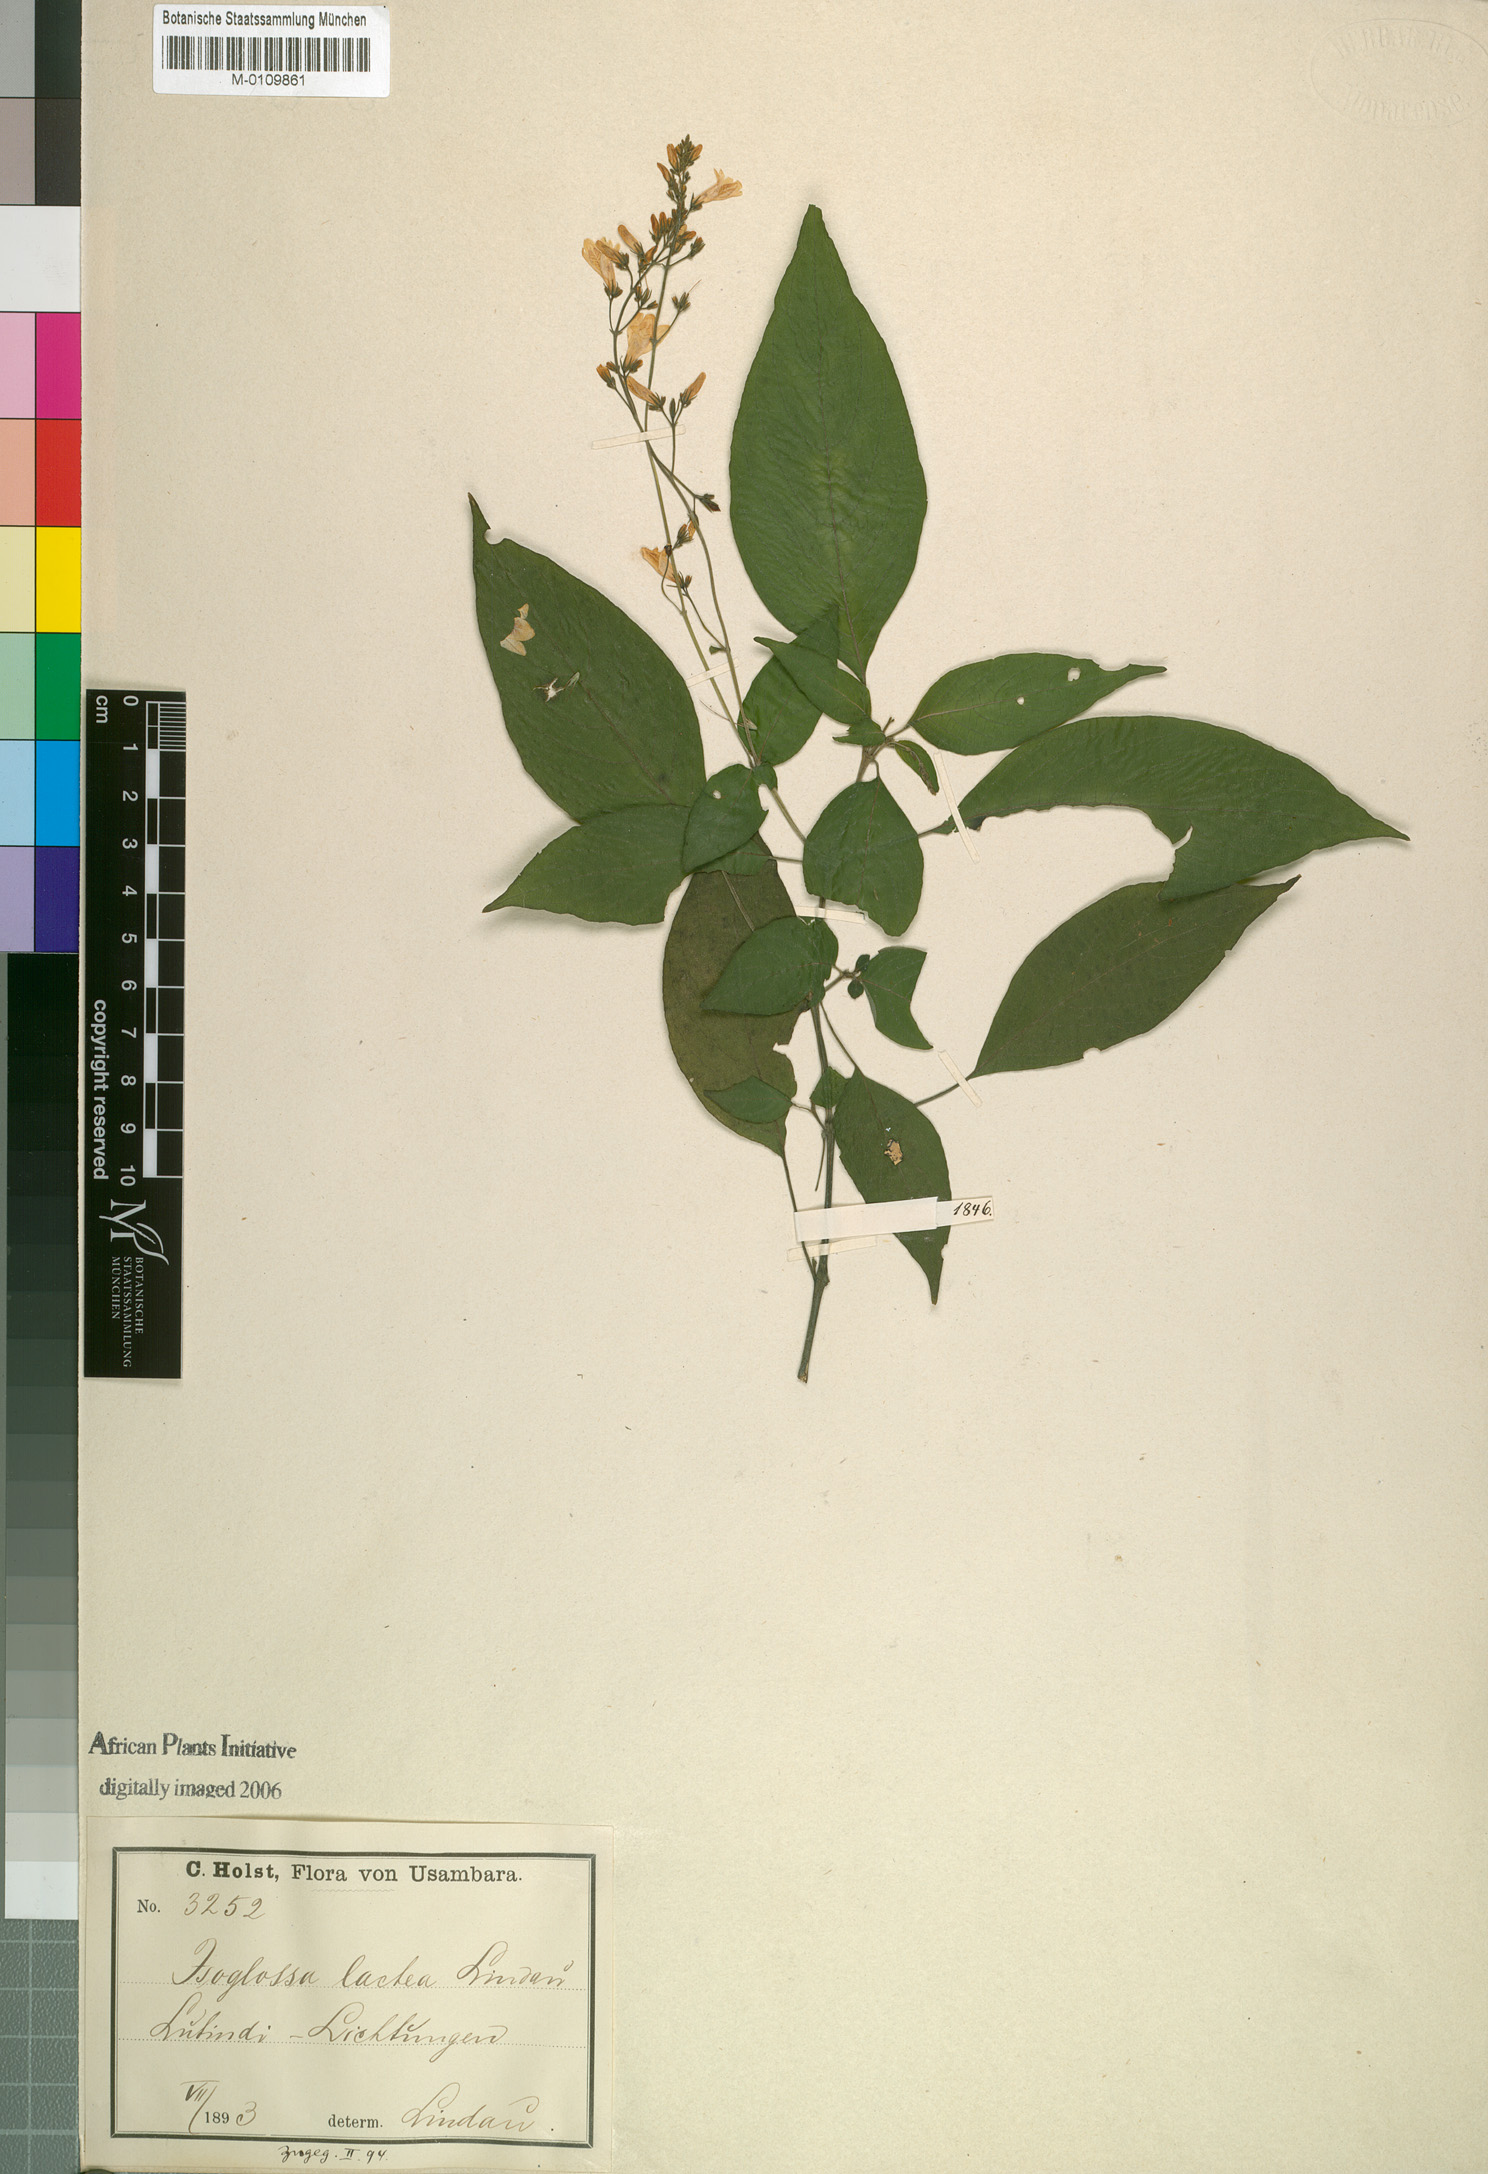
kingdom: Plantae
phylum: Tracheophyta
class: Magnoliopsida
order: Lamiales
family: Acanthaceae
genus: Isoglossa
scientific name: Isoglossa lactea
